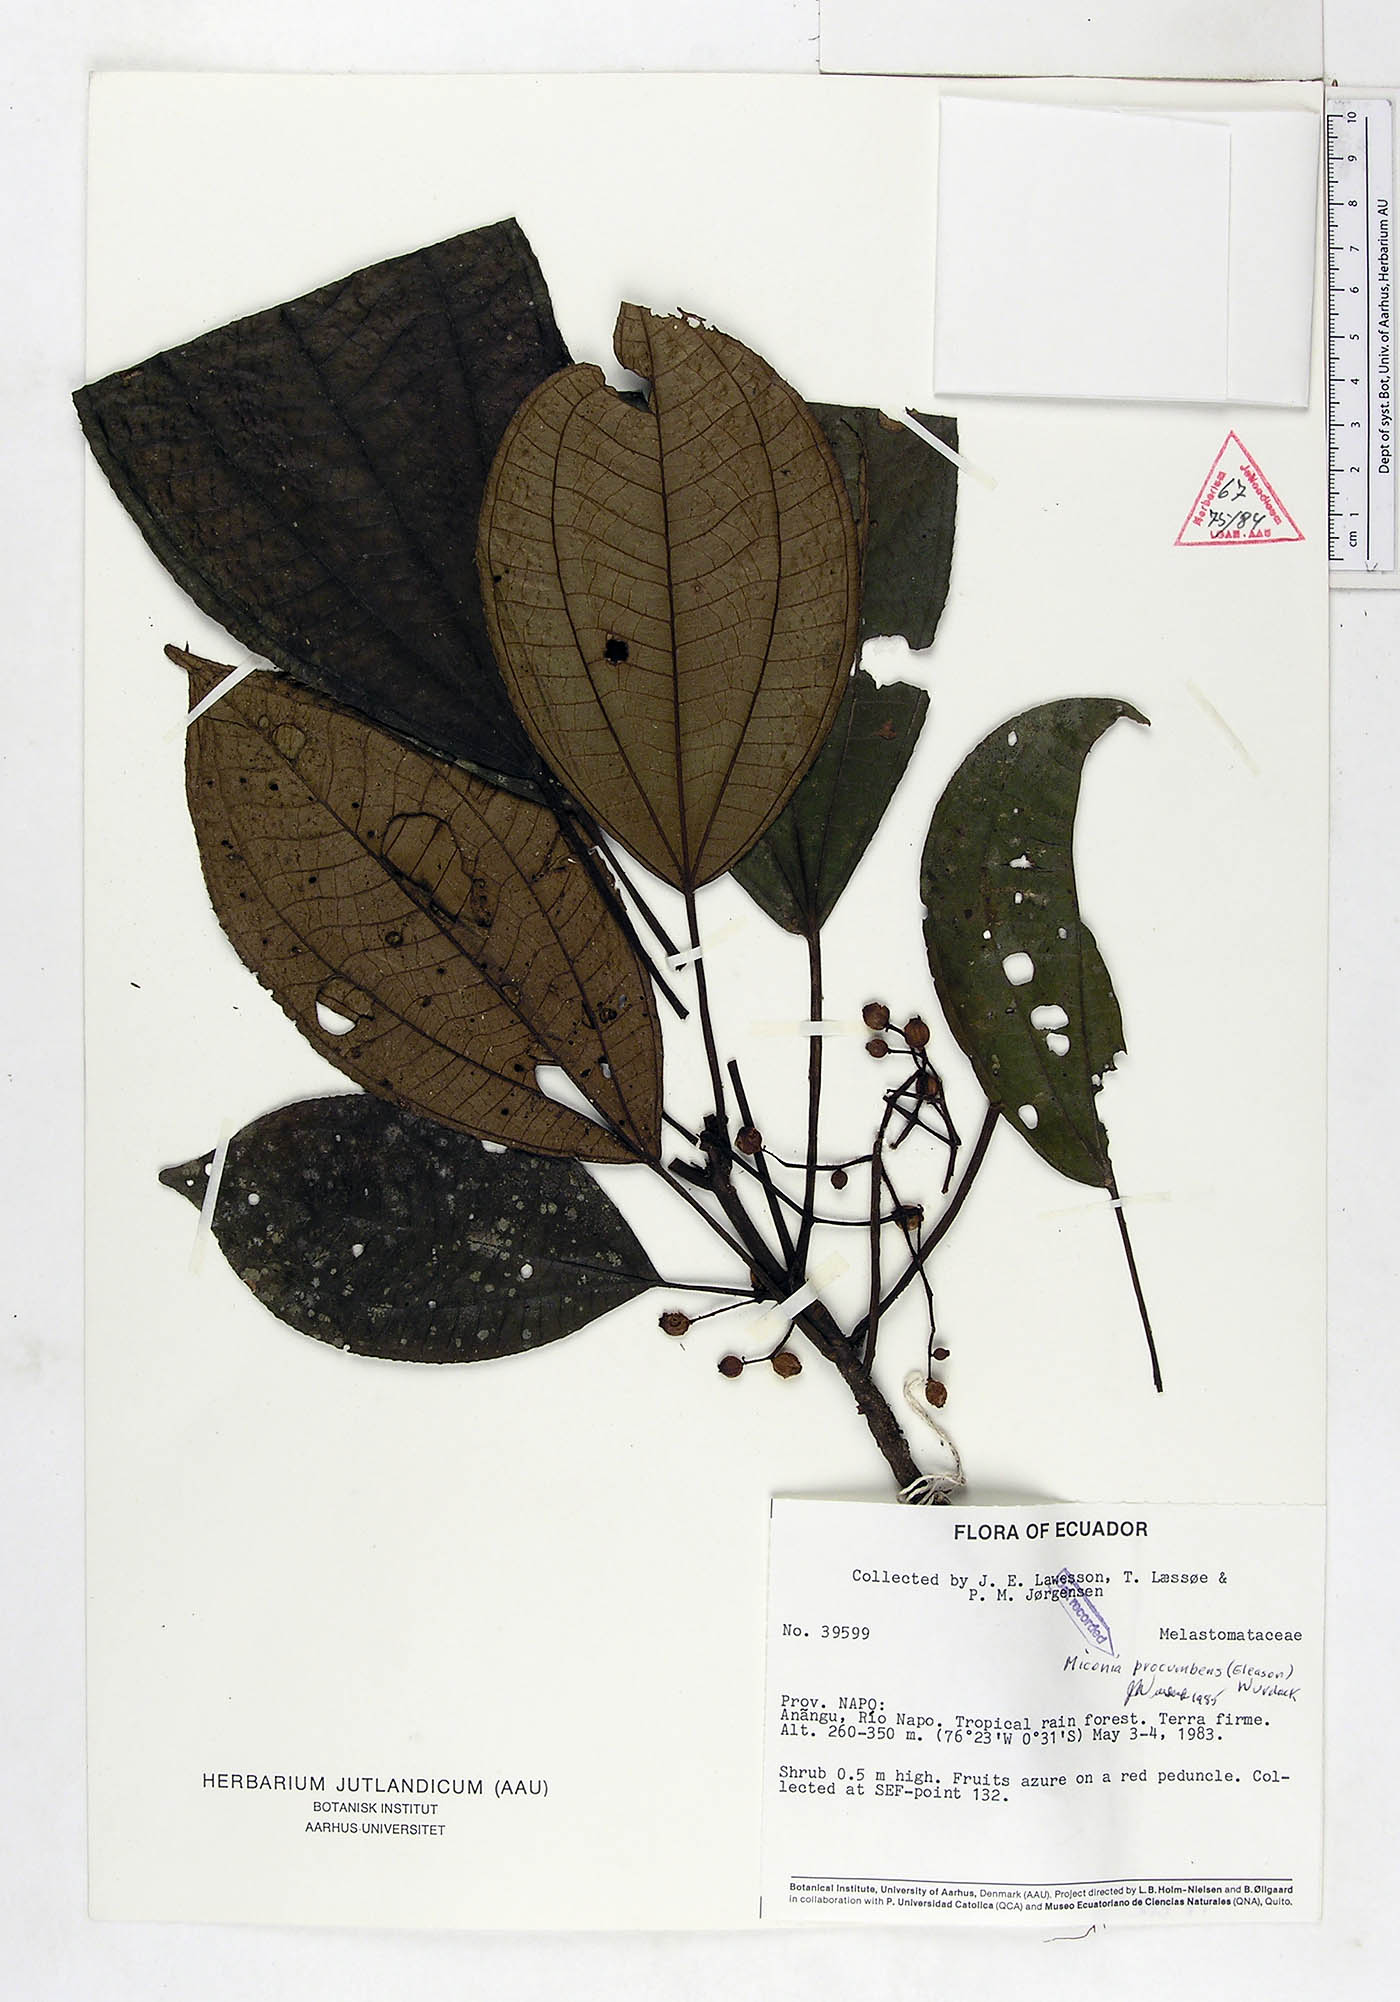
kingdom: Plantae
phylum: Tracheophyta
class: Magnoliopsida
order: Myrtales
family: Melastomataceae
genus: Miconia
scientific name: Miconia procumbens
